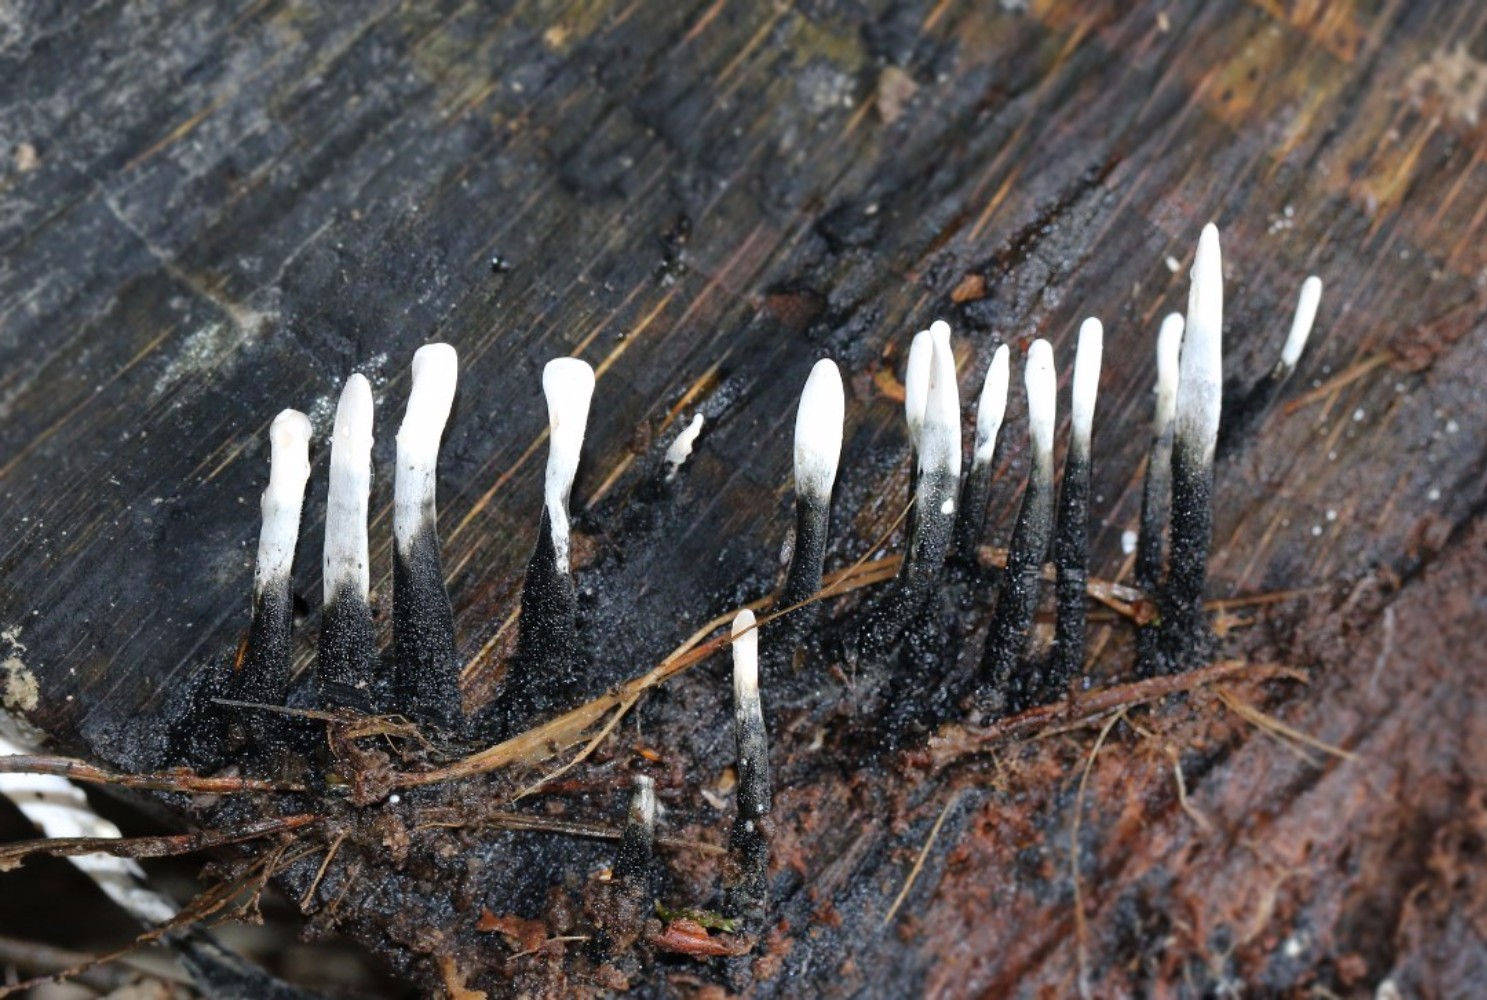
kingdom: Fungi
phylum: Ascomycota
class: Sordariomycetes
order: Xylariales
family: Xylariaceae
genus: Xylaria
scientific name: Xylaria hypoxylon
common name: grenet stødsvamp
